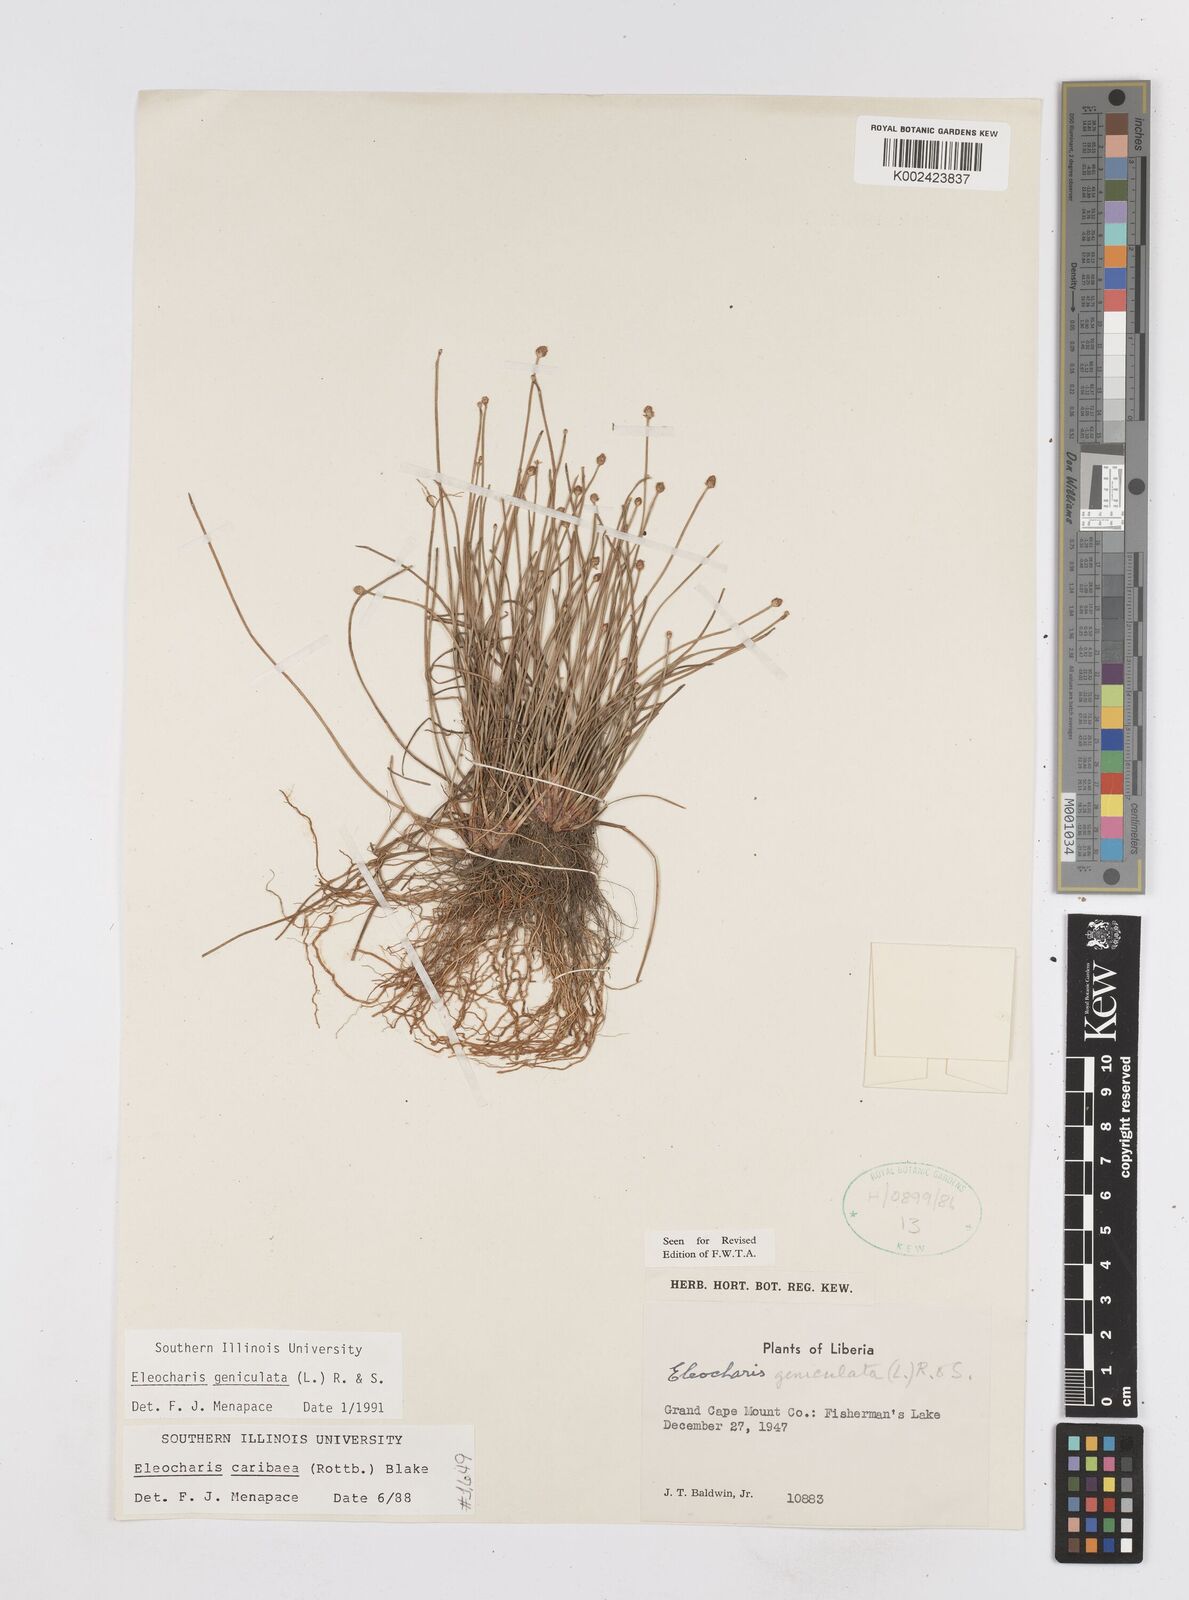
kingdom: Plantae
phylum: Tracheophyta
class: Liliopsida
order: Poales
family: Cyperaceae
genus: Eleocharis
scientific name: Eleocharis geniculata
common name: Canada spikesedge
